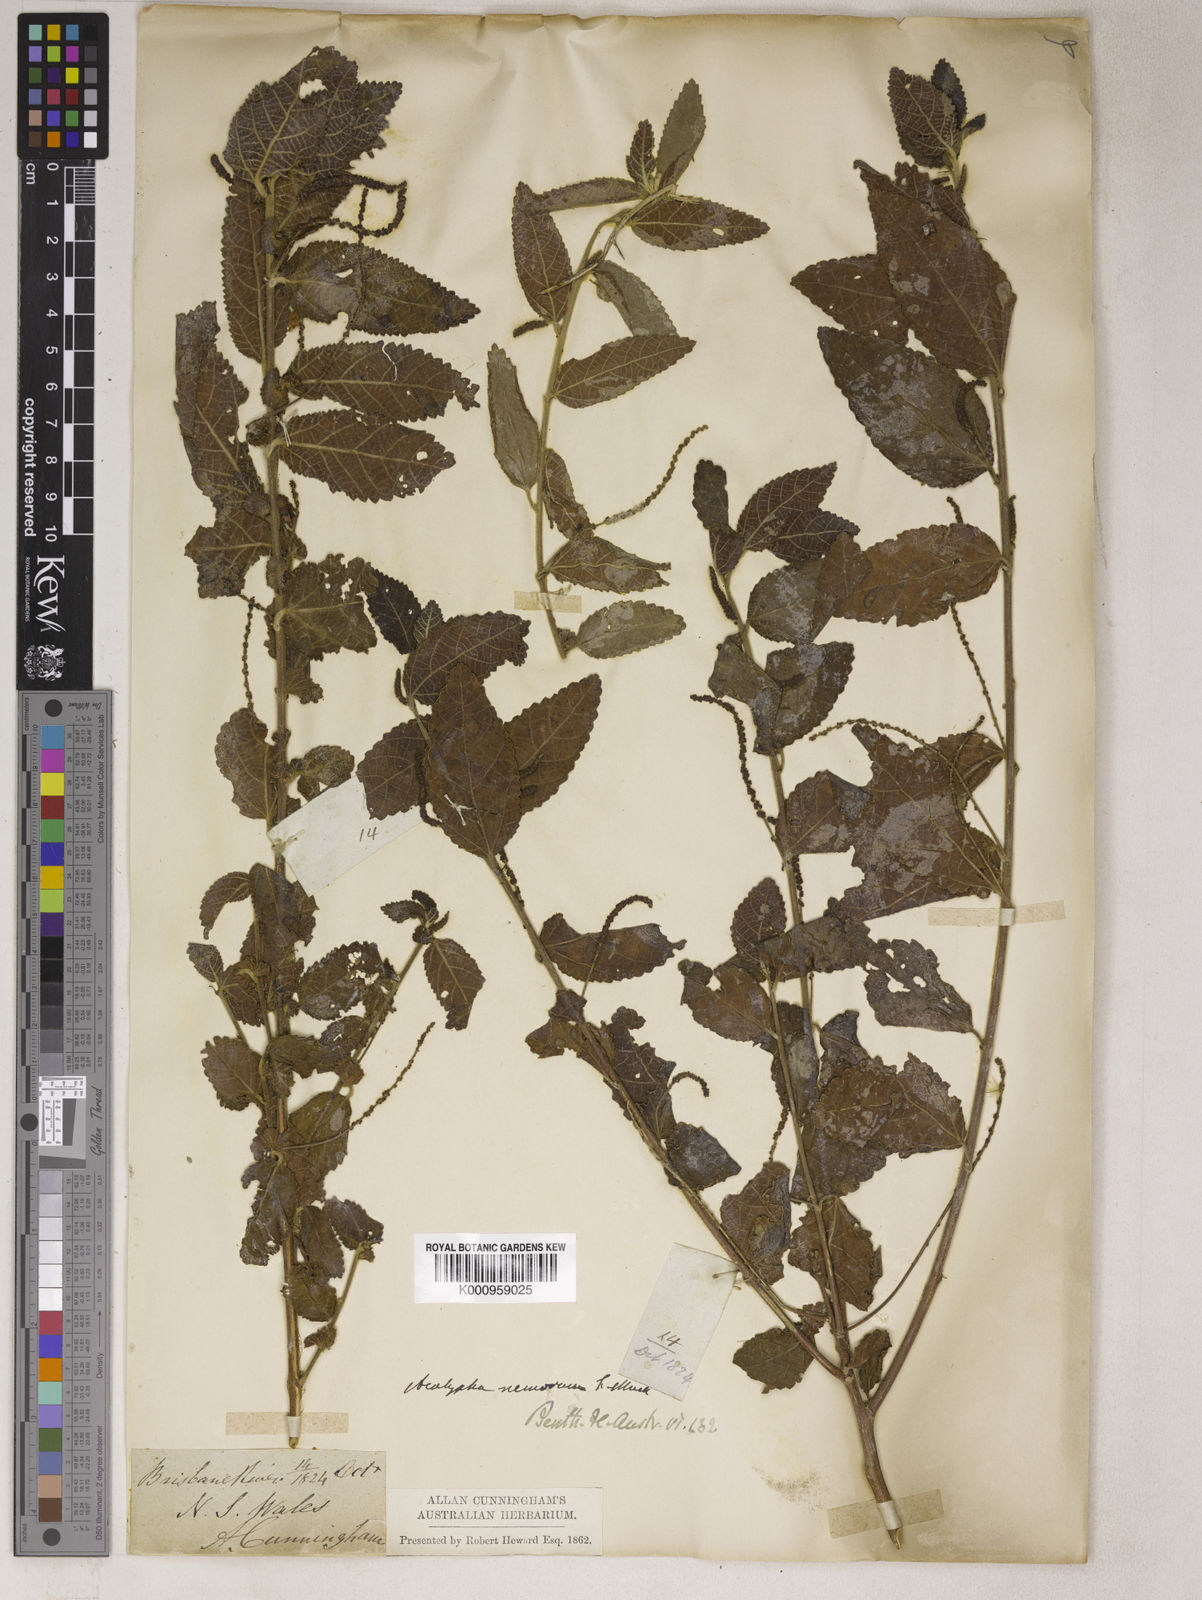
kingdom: Plantae
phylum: Tracheophyta
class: Magnoliopsida
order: Malpighiales
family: Euphorbiaceae
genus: Acalypha
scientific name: Acalypha
